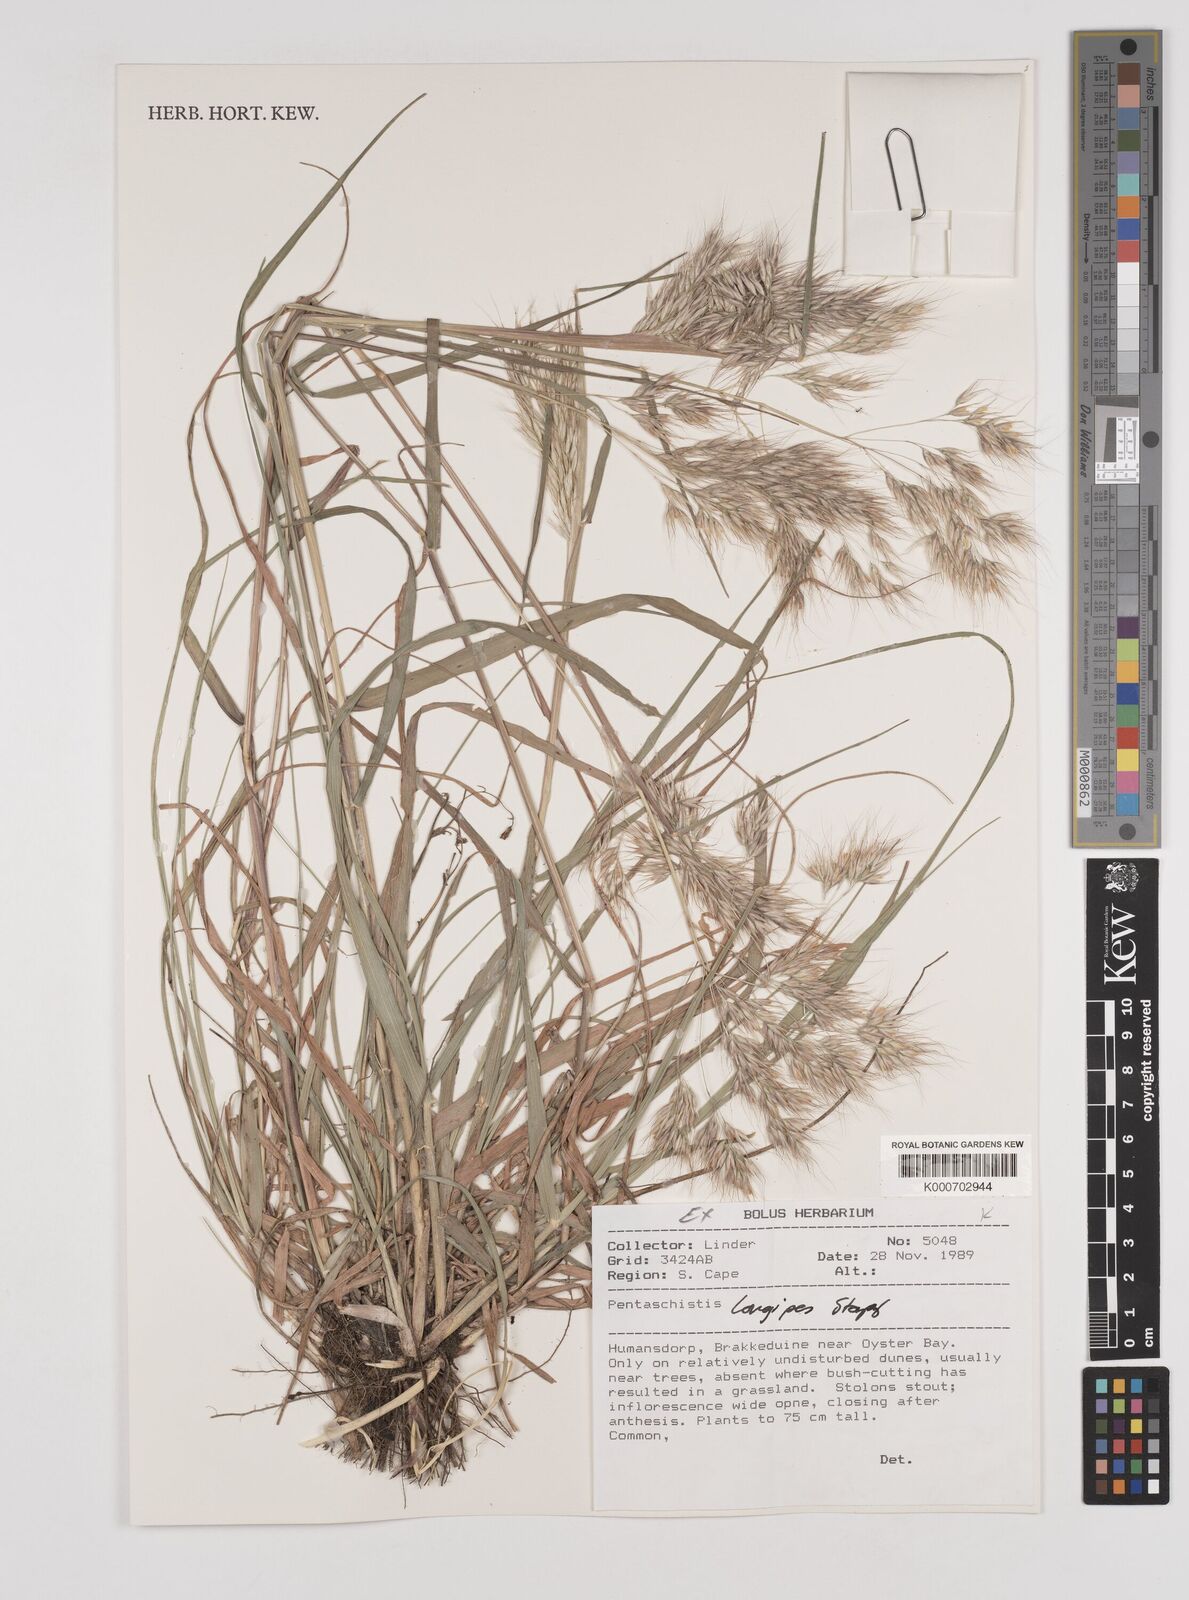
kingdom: Plantae
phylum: Tracheophyta
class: Liliopsida
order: Poales
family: Poaceae
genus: Pentameris
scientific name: Pentameris longipes
